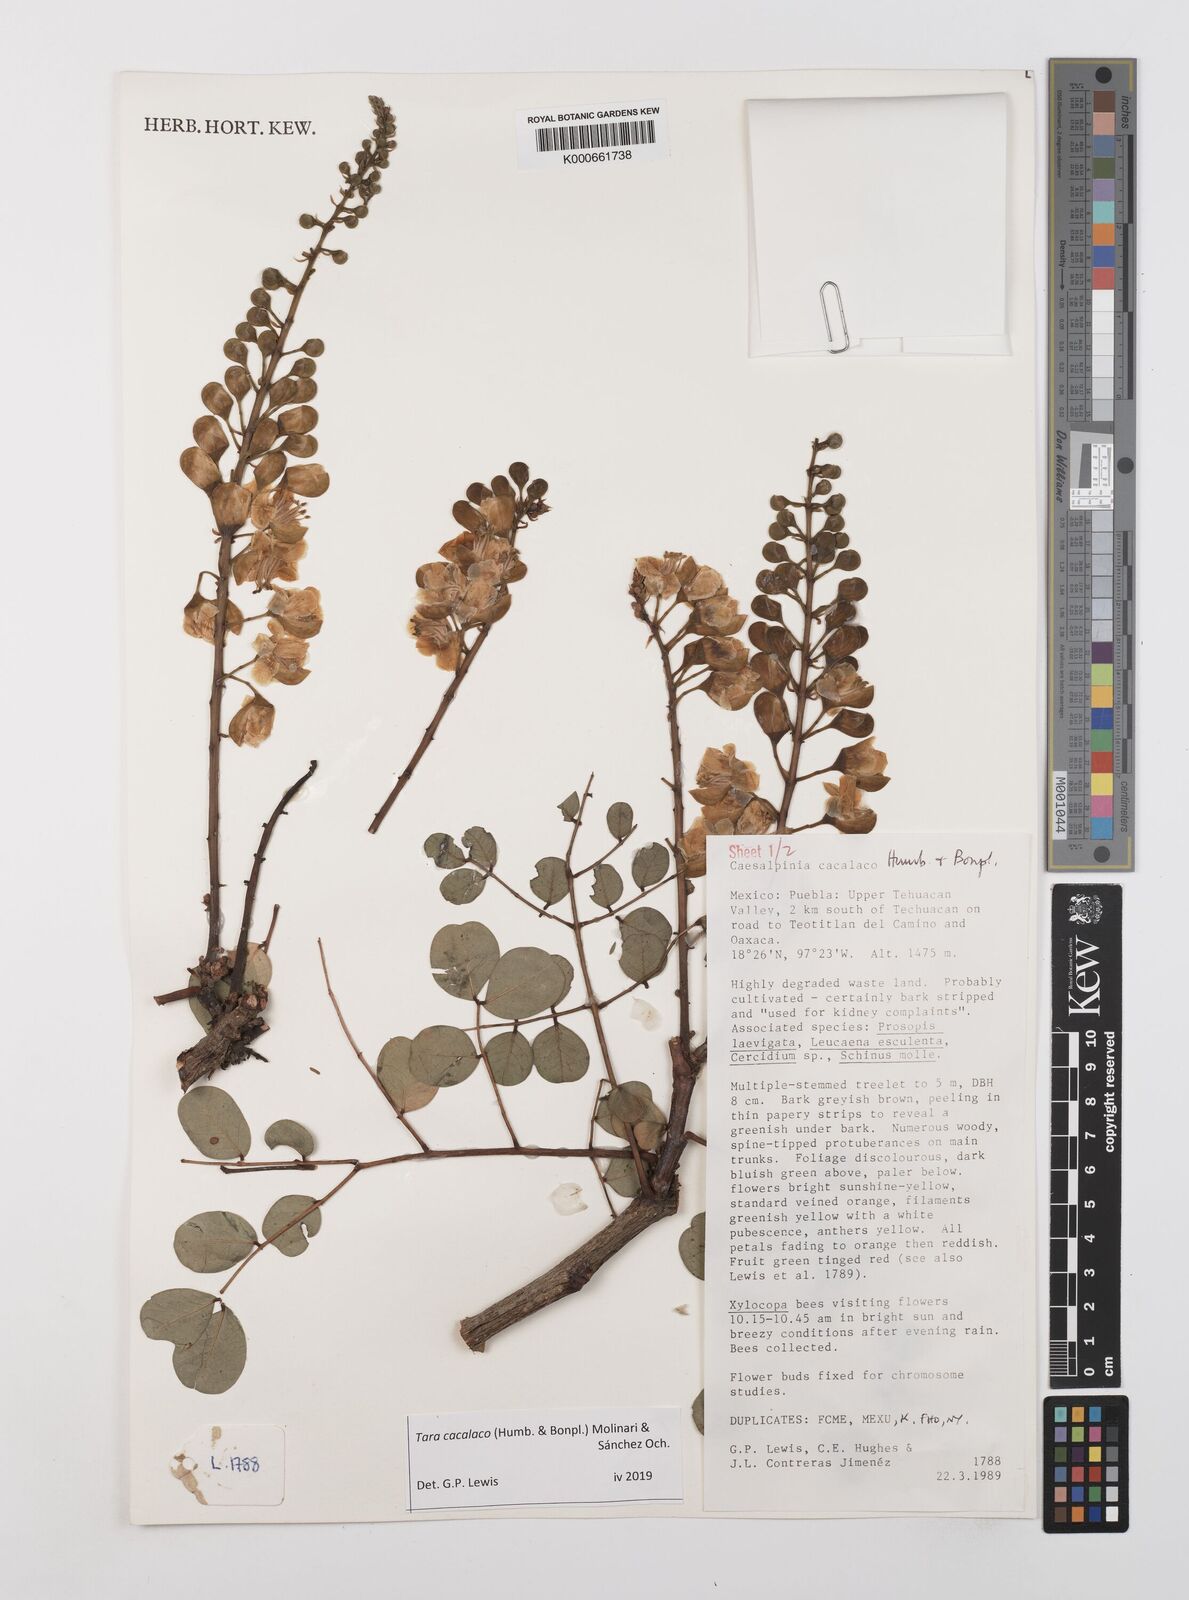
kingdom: Plantae
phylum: Tracheophyta
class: Magnoliopsida
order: Fabales
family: Fabaceae
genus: Tara
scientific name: Tara cacalaco
